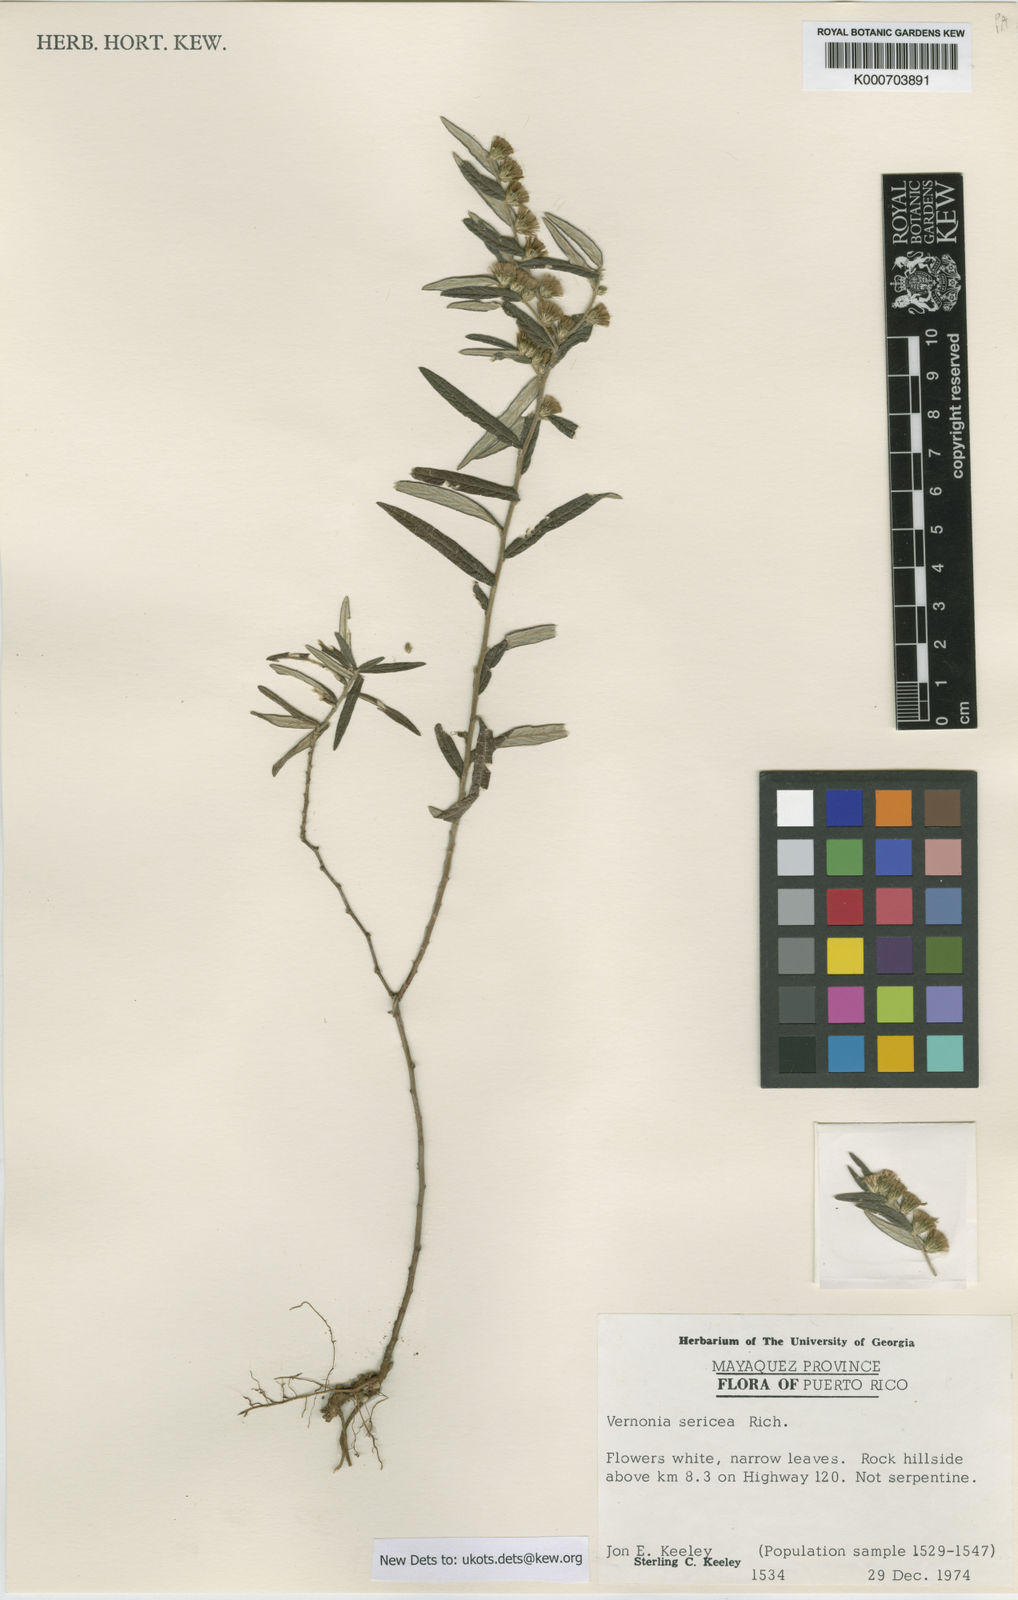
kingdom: Plantae
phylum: Tracheophyta
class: Magnoliopsida
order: Asterales
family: Asteraceae
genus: Lepidaploa
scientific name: Lepidaploa sericea
